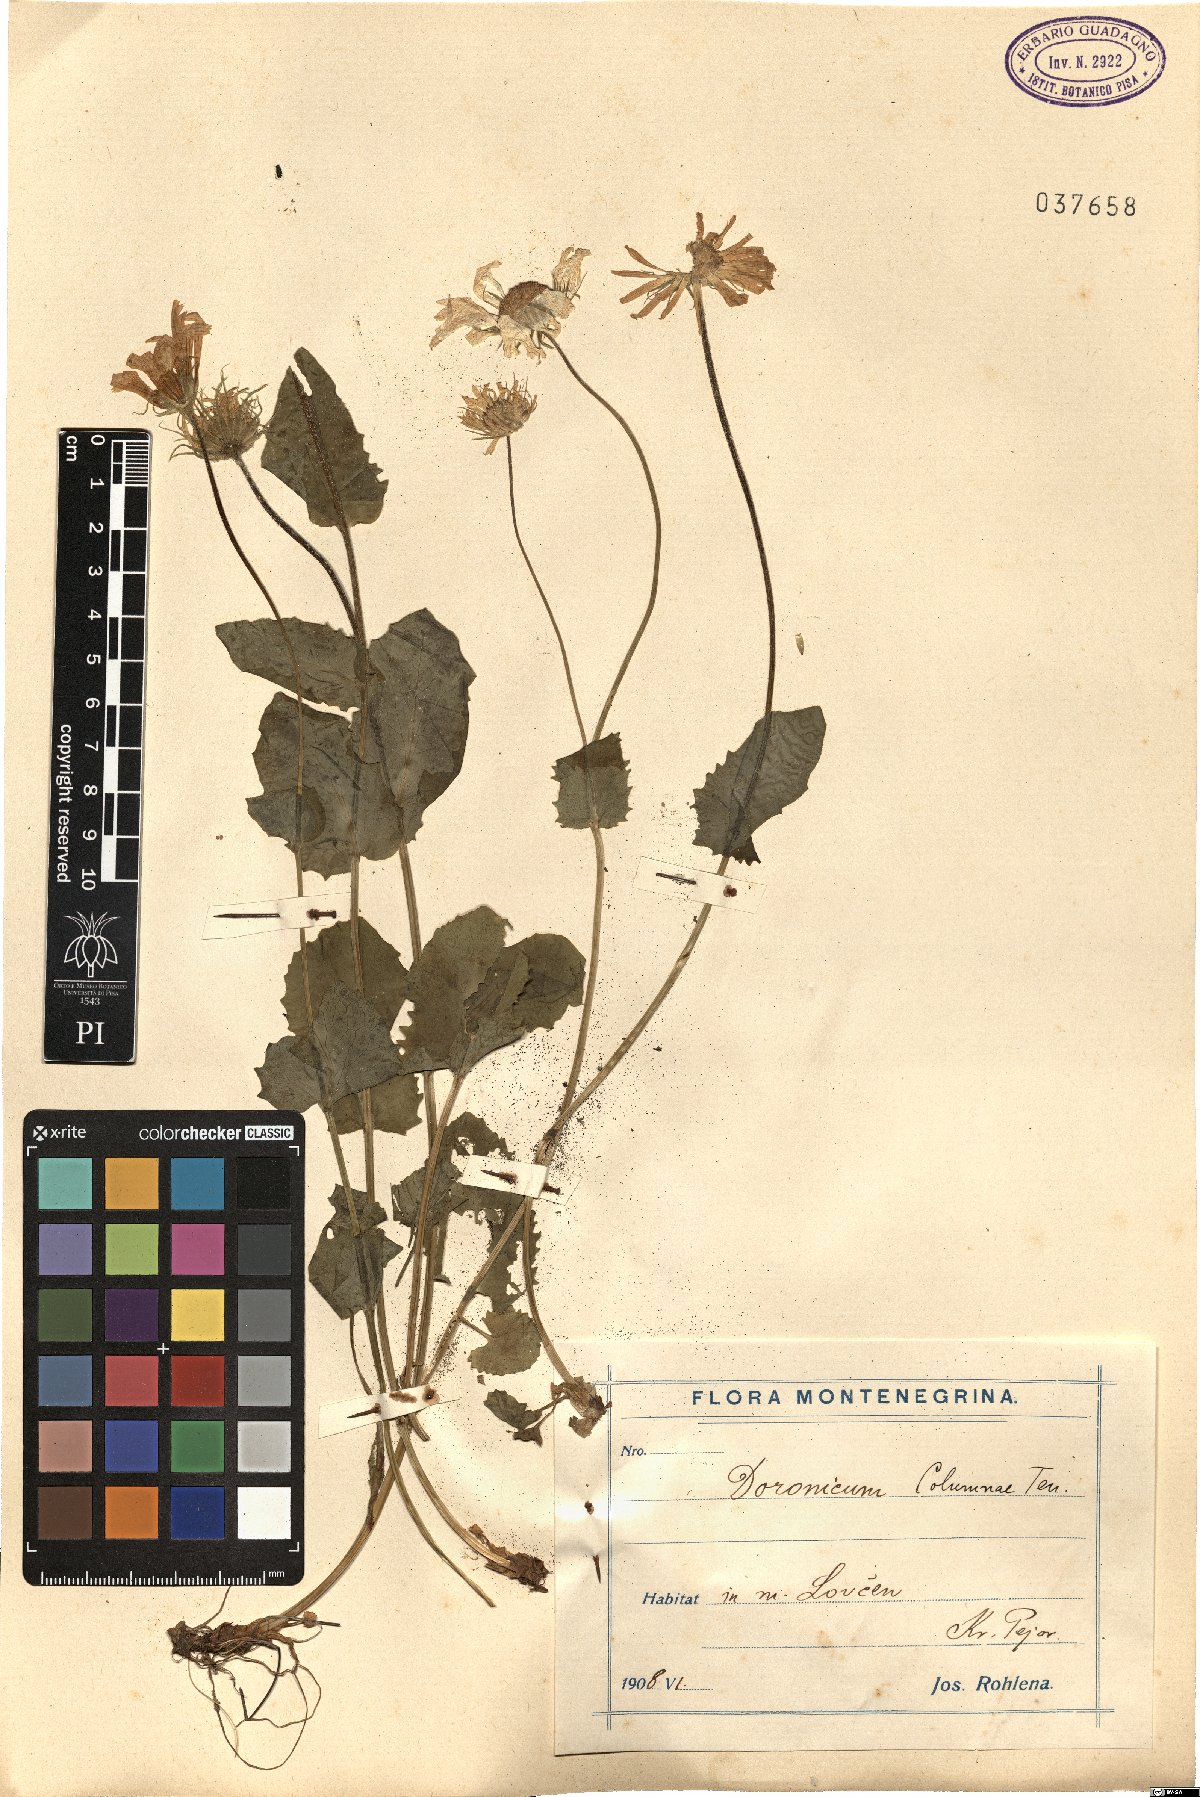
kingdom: Plantae
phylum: Tracheophyta
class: Magnoliopsida
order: Asterales
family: Asteraceae
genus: Doronicum
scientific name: Doronicum columnae
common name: Eastern leopard's-bane
